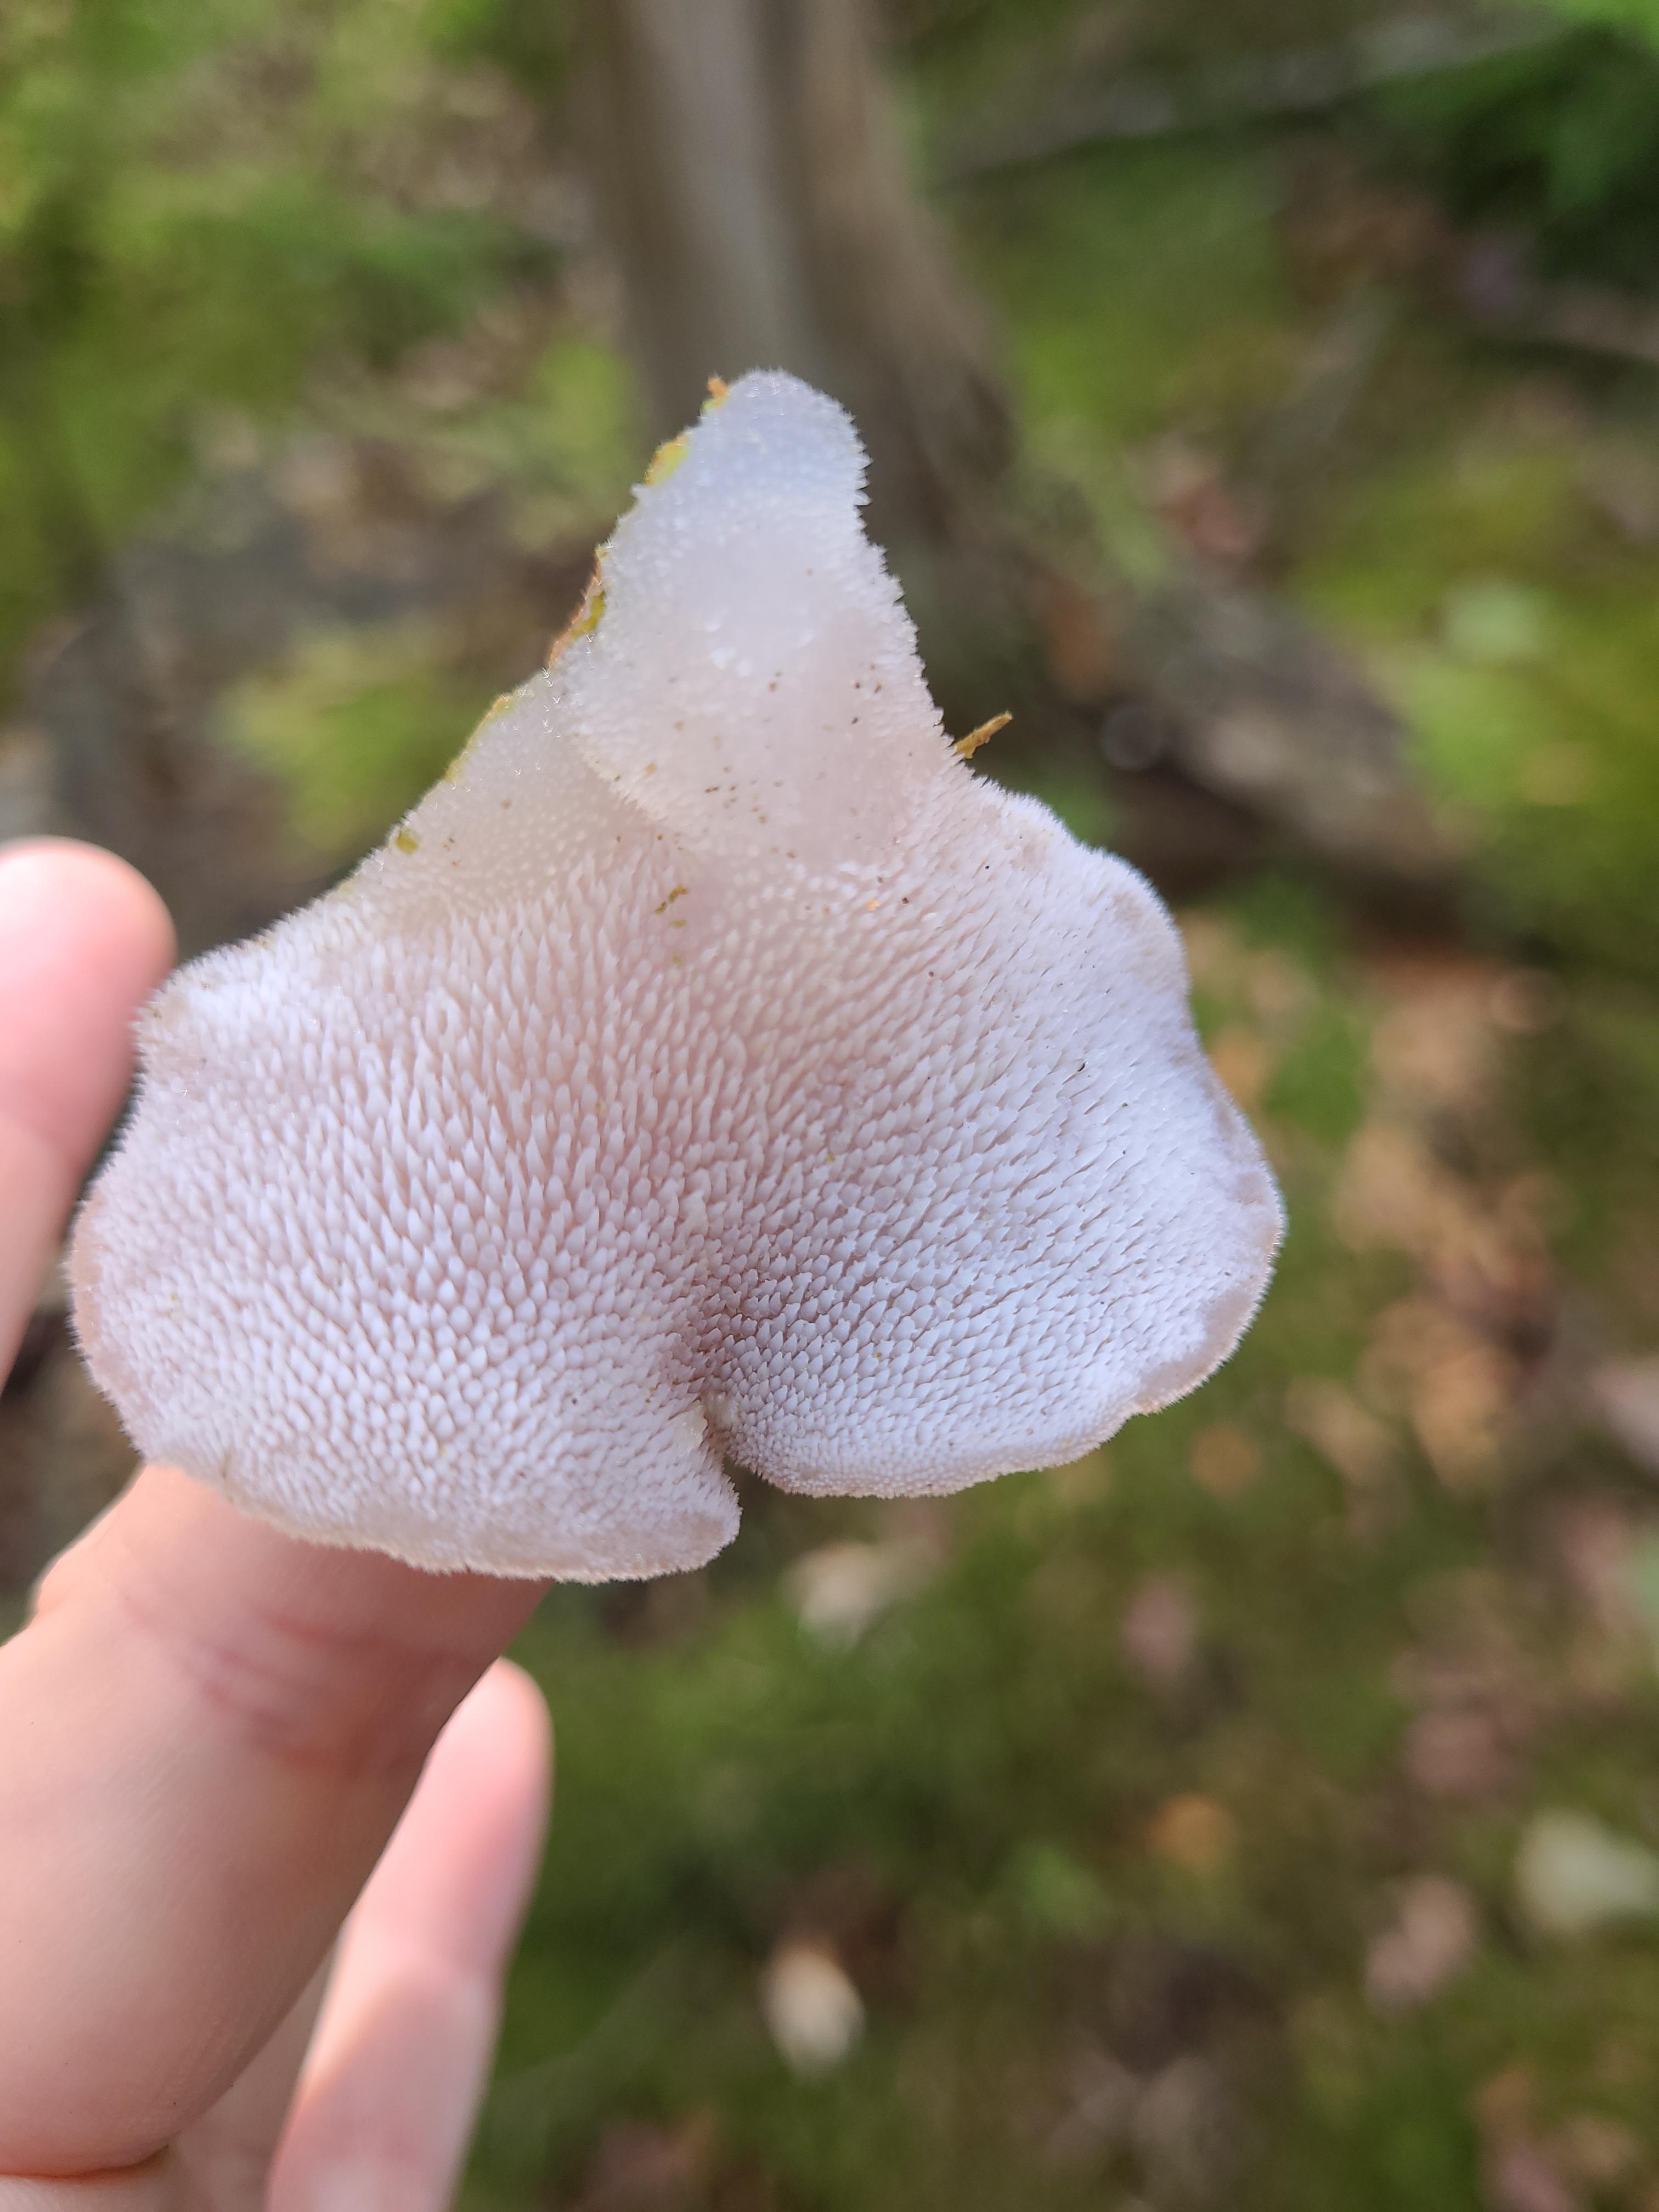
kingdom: Fungi
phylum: Basidiomycota
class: Agaricomycetes
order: Auriculariales
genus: Pseudohydnum
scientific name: Pseudohydnum gelatinosum
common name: bævretand
